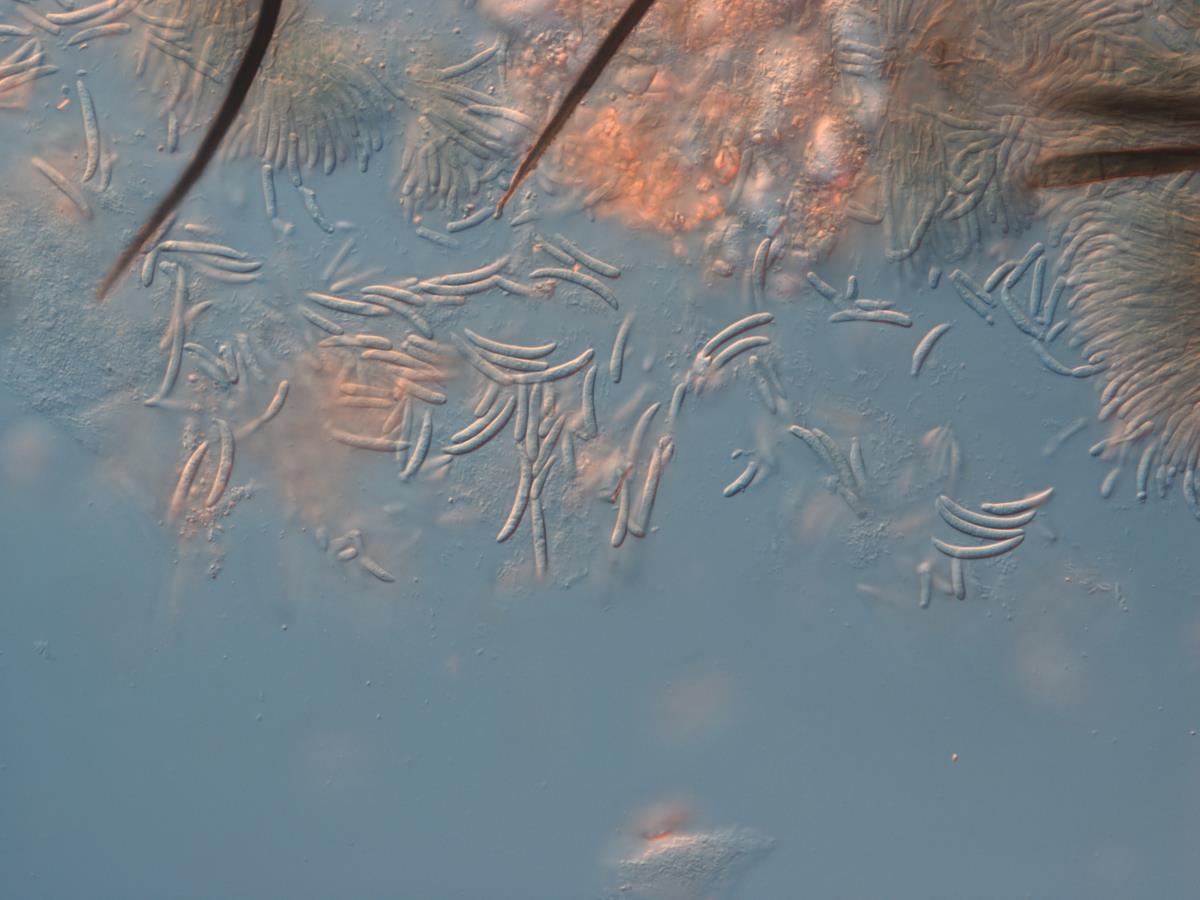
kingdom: Fungi
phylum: Ascomycota
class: Sordariomycetes
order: Glomerellales
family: Glomerellaceae
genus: Colletotrichum
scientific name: Colletotrichum dematium
